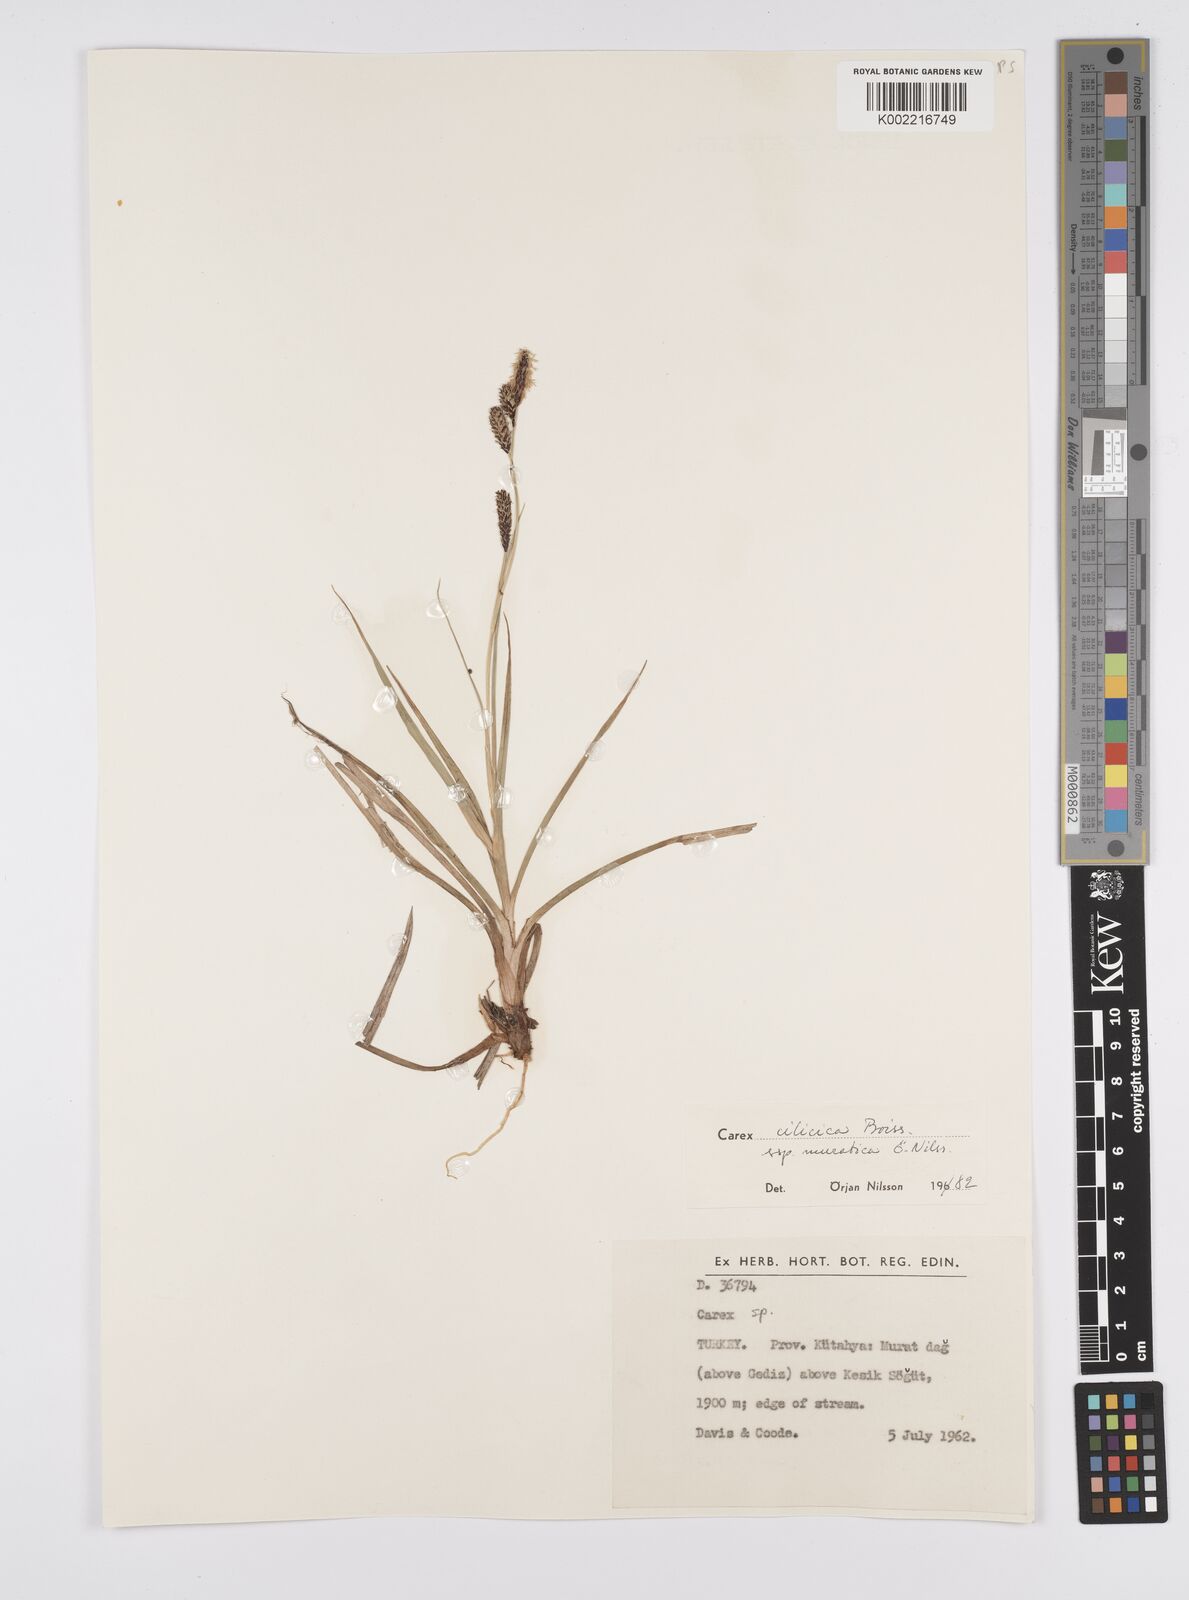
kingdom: Plantae
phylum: Tracheophyta
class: Liliopsida
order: Poales
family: Cyperaceae
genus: Carex
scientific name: Carex cilicica
